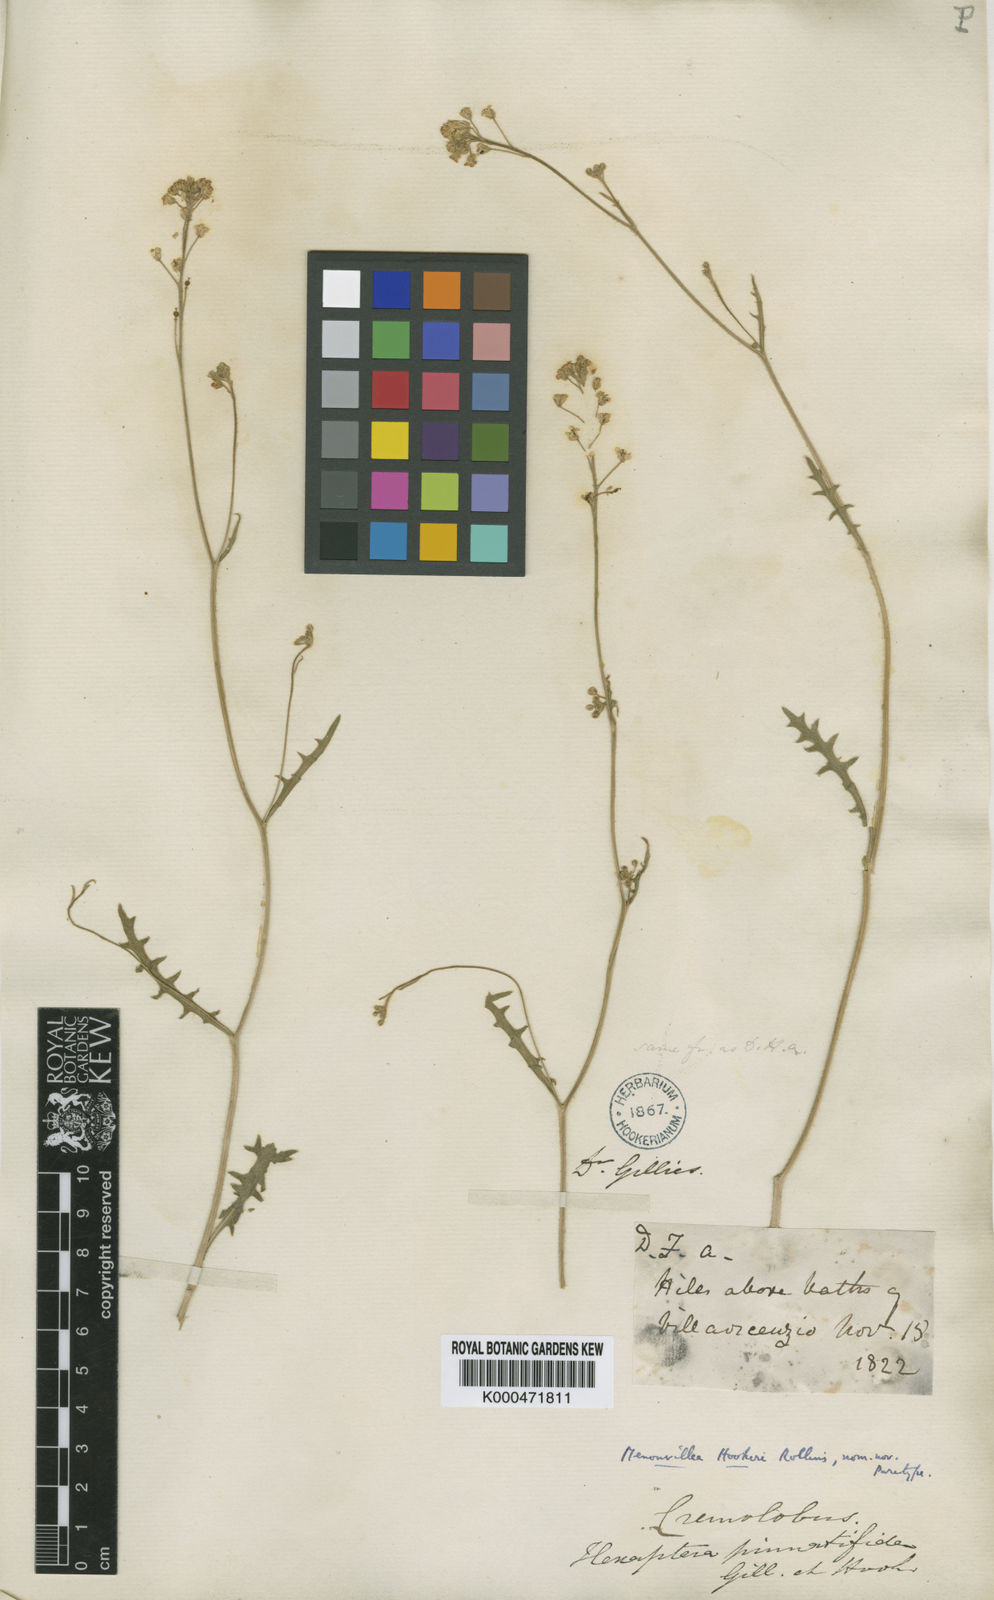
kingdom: Plantae
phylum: Tracheophyta
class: Magnoliopsida
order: Brassicales
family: Brassicaceae
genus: Menonvillea
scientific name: Menonvillea scapigera
